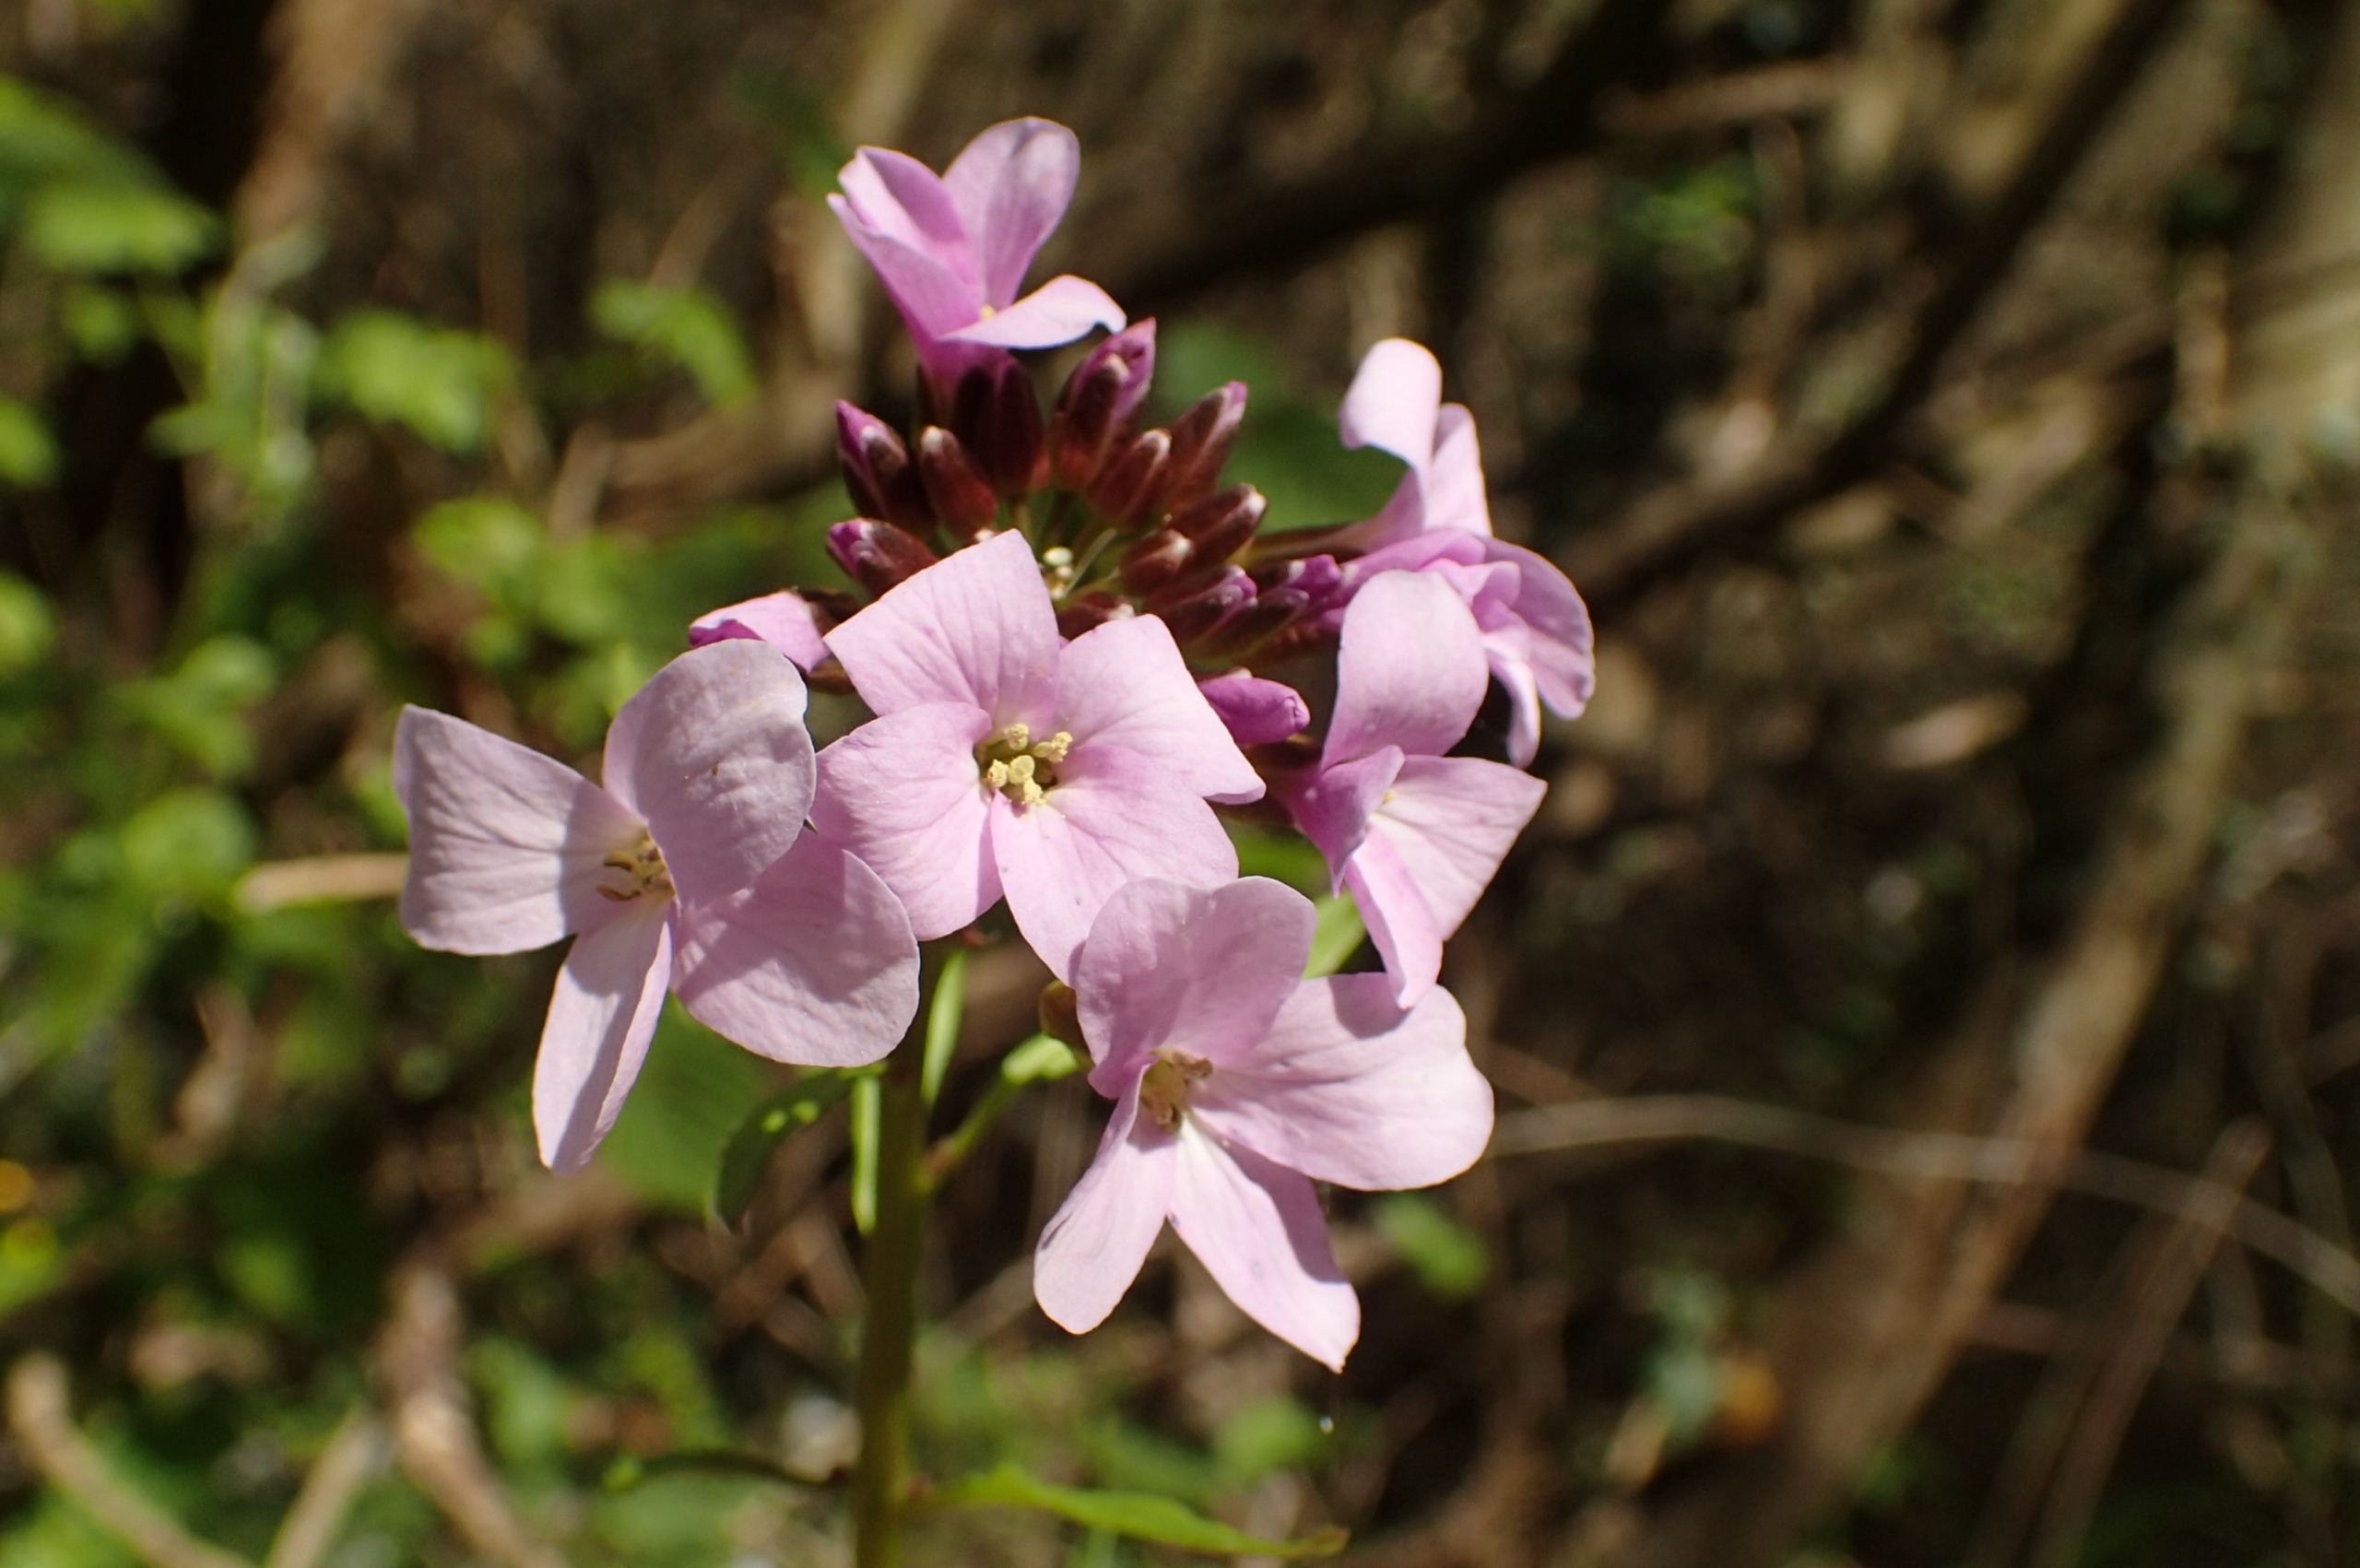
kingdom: Plantae
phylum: Tracheophyta
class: Magnoliopsida
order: Brassicales
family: Brassicaceae
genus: Cardamine
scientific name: Cardamine bulbifera
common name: Tandrod
